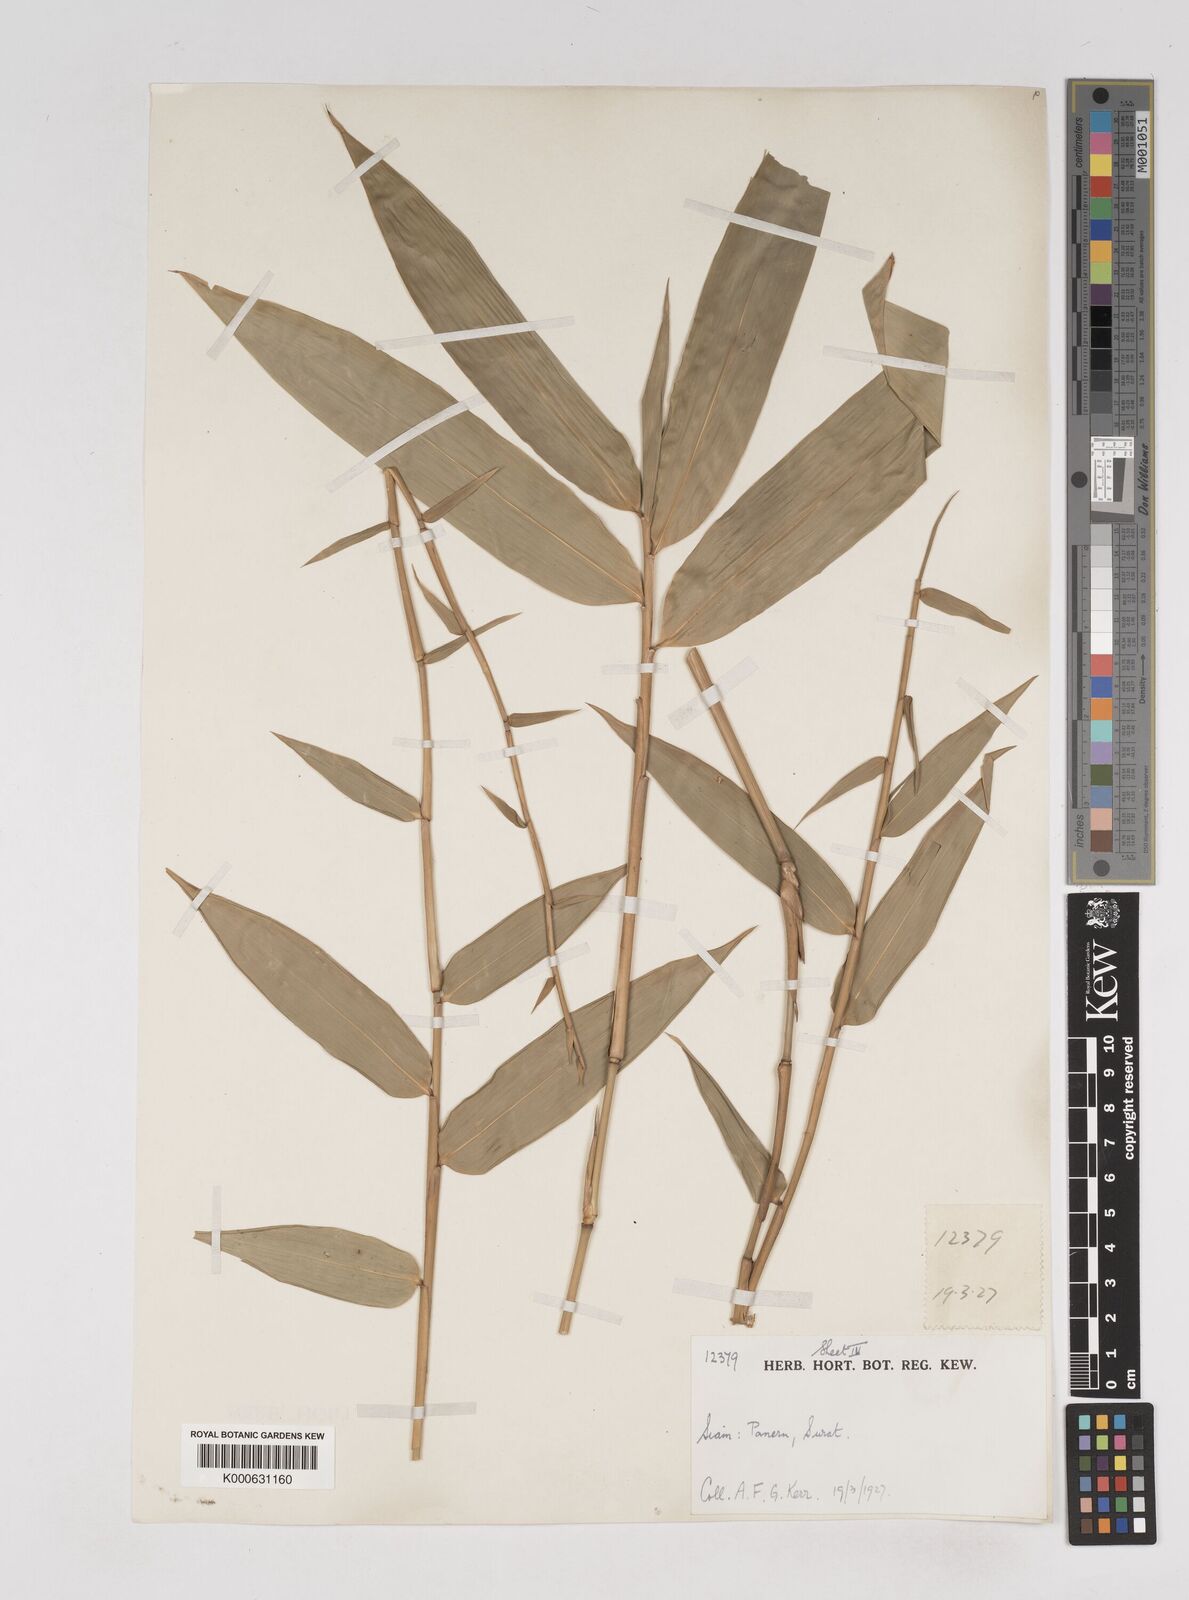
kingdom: Plantae
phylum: Tracheophyta
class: Liliopsida
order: Poales
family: Poaceae
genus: Gigantochloa
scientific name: Gigantochloa
